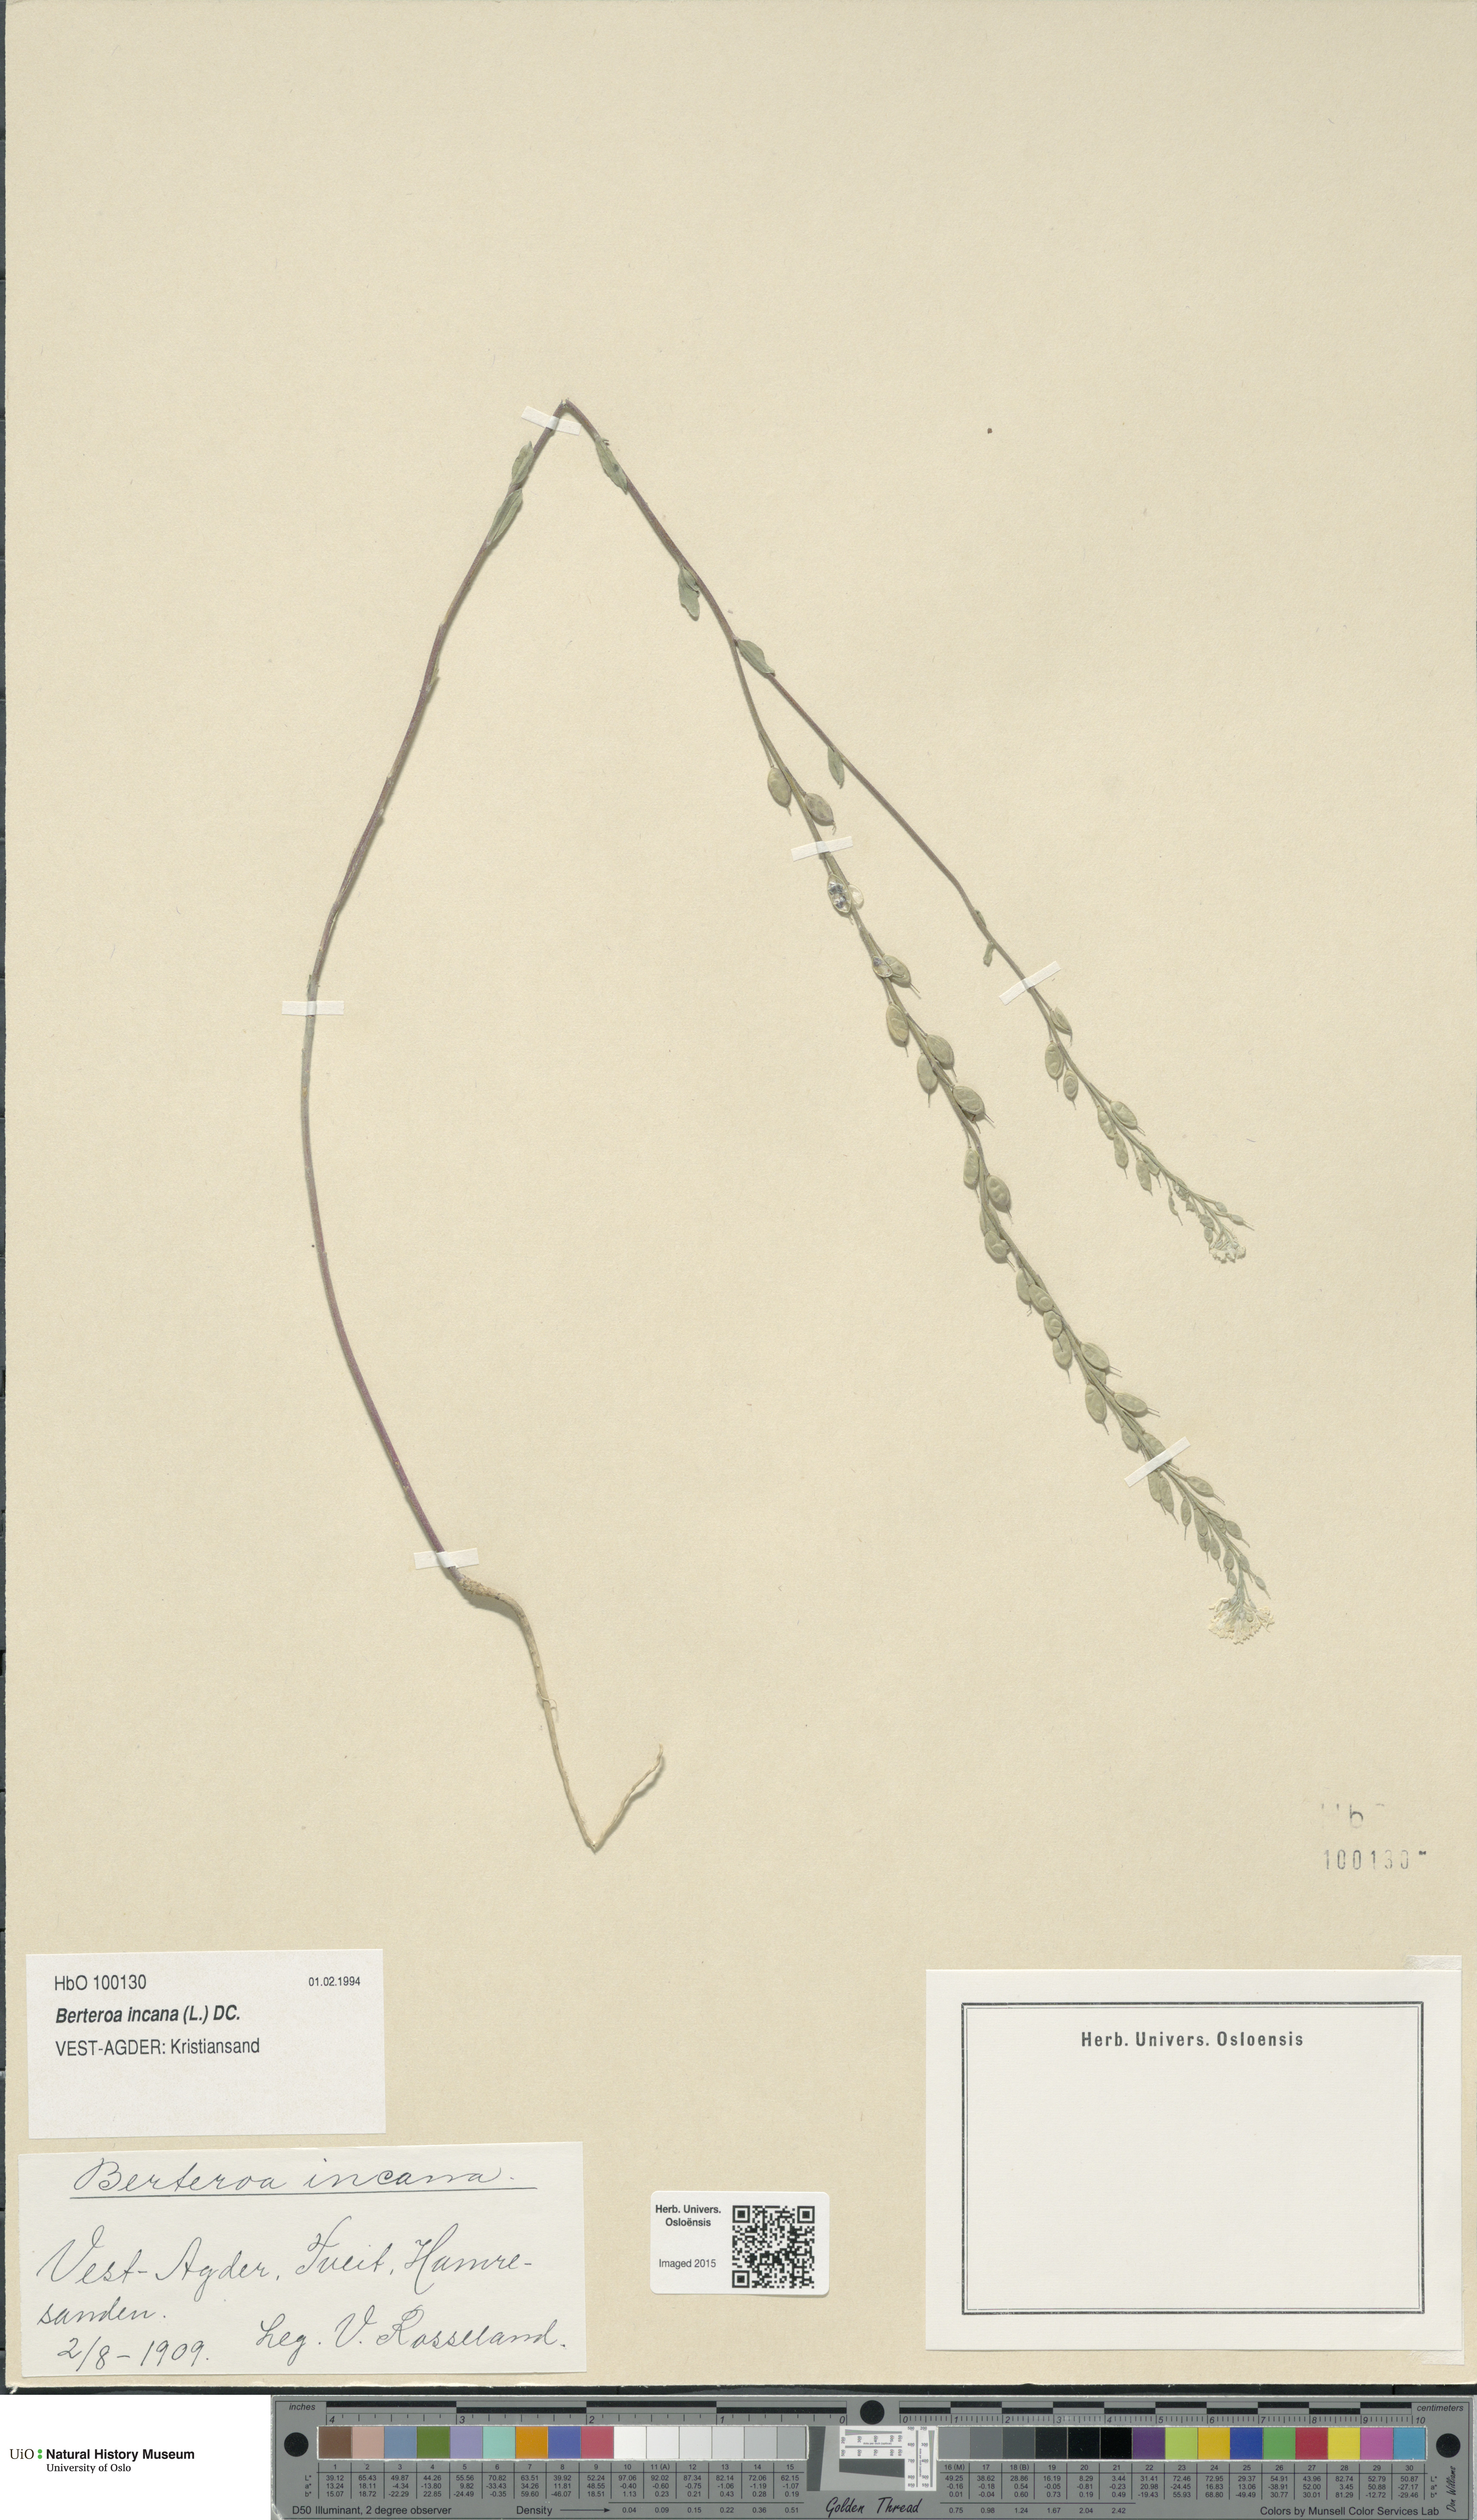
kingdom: Plantae
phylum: Tracheophyta
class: Magnoliopsida
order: Brassicales
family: Brassicaceae
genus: Berteroa
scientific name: Berteroa incana
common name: Hoary alison
